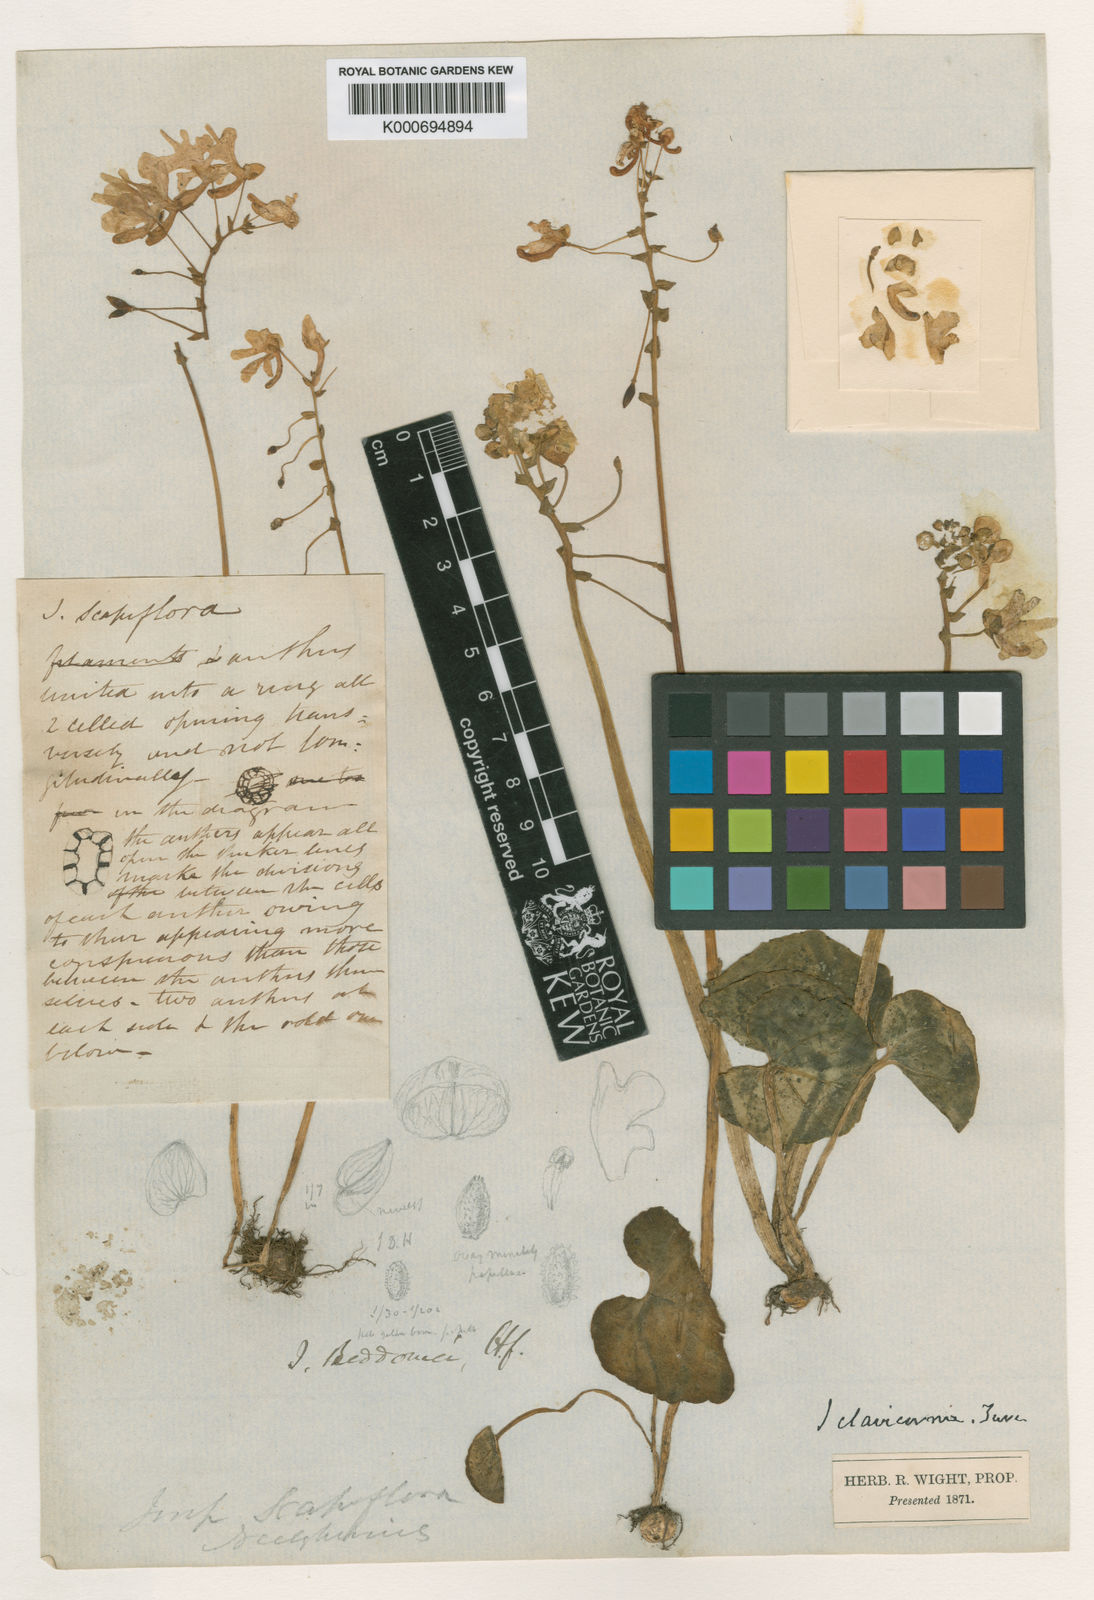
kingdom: Plantae
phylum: Tracheophyta
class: Magnoliopsida
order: Ericales
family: Balsaminaceae
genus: Impatiens
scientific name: Impatiens clavicornu
